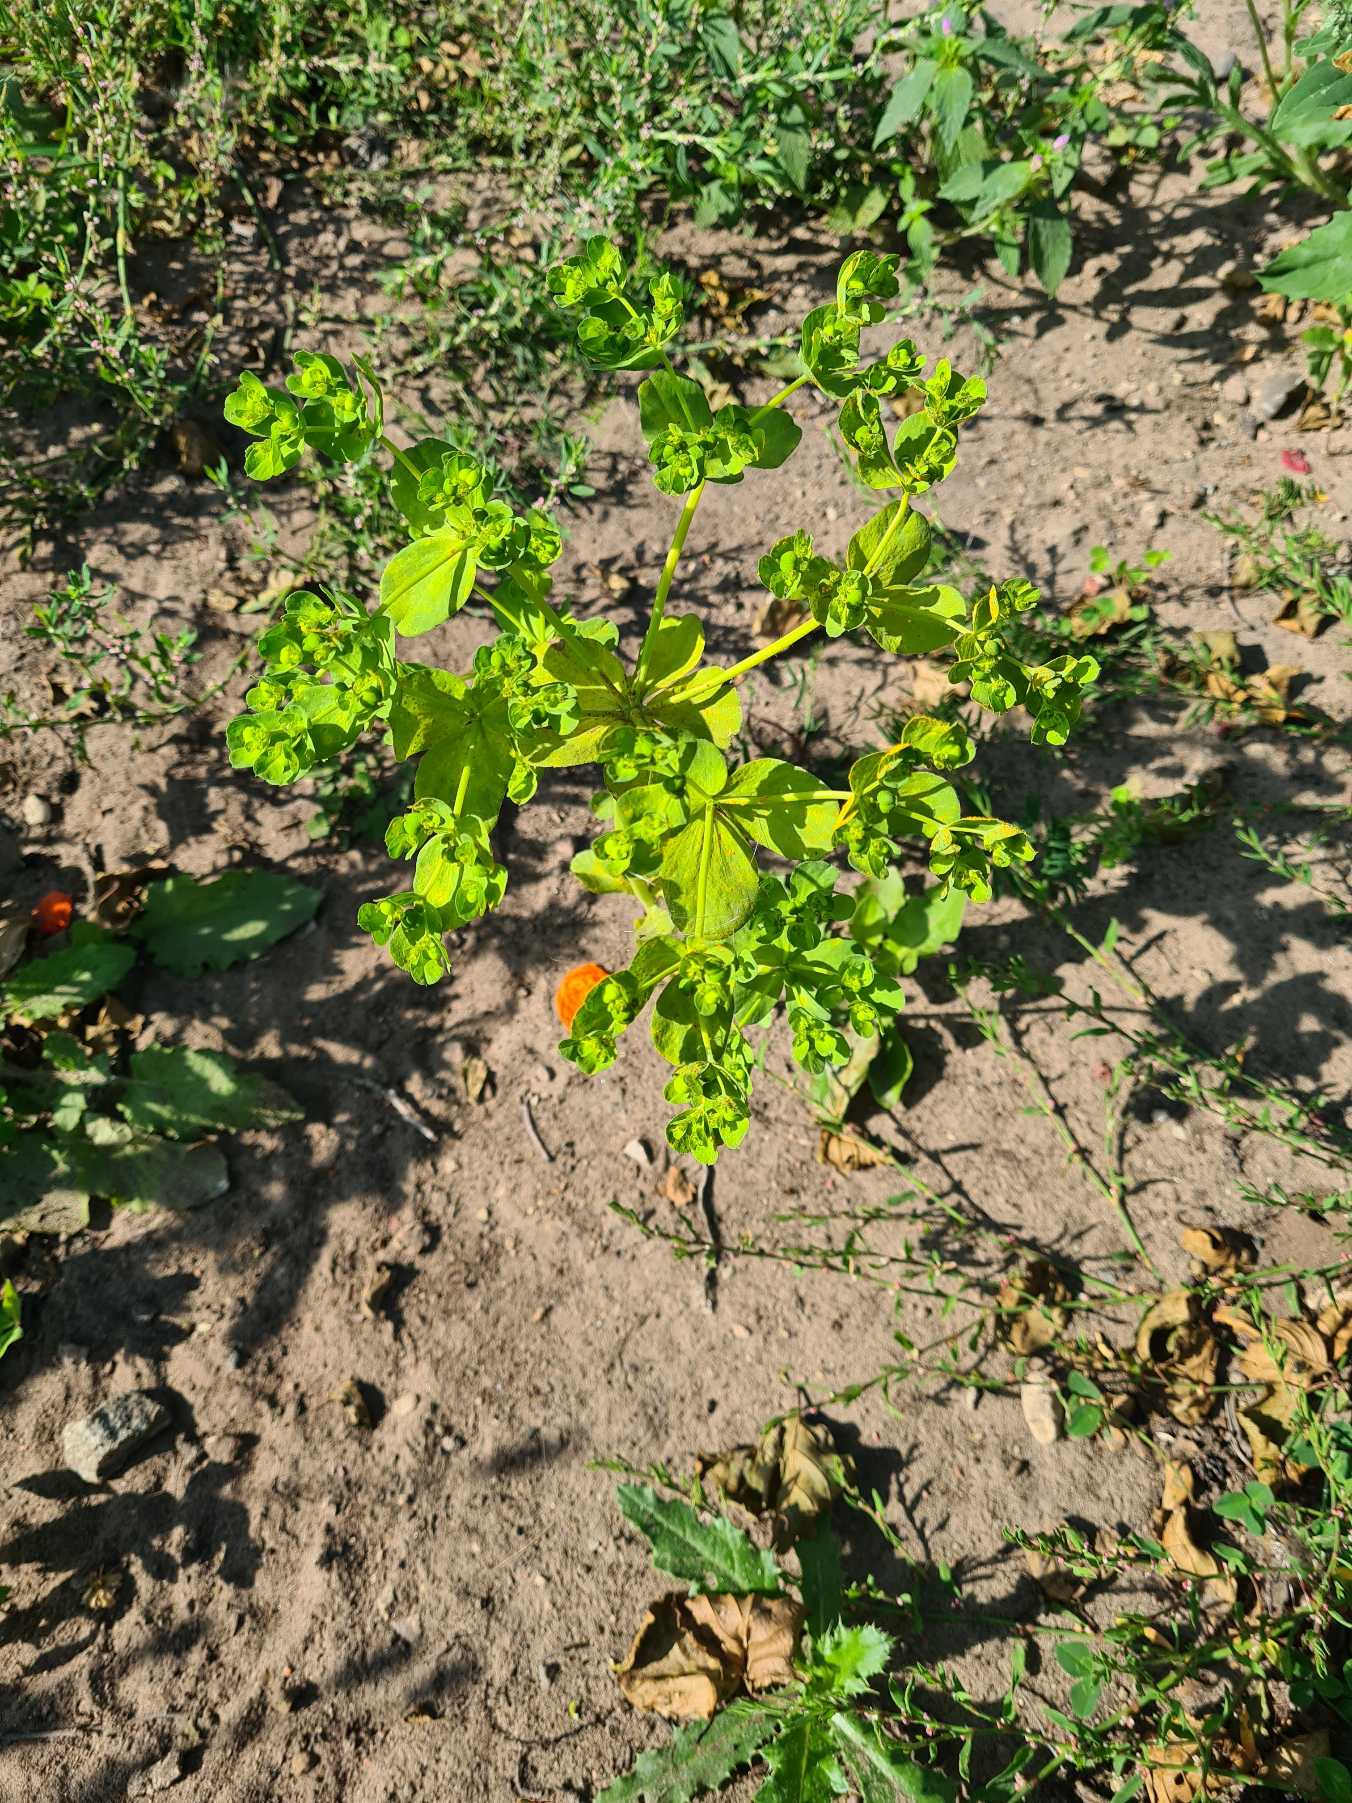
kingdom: Plantae
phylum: Tracheophyta
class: Magnoliopsida
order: Malpighiales
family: Euphorbiaceae
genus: Euphorbia
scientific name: Euphorbia helioscopia
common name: Skærm-vortemælk
